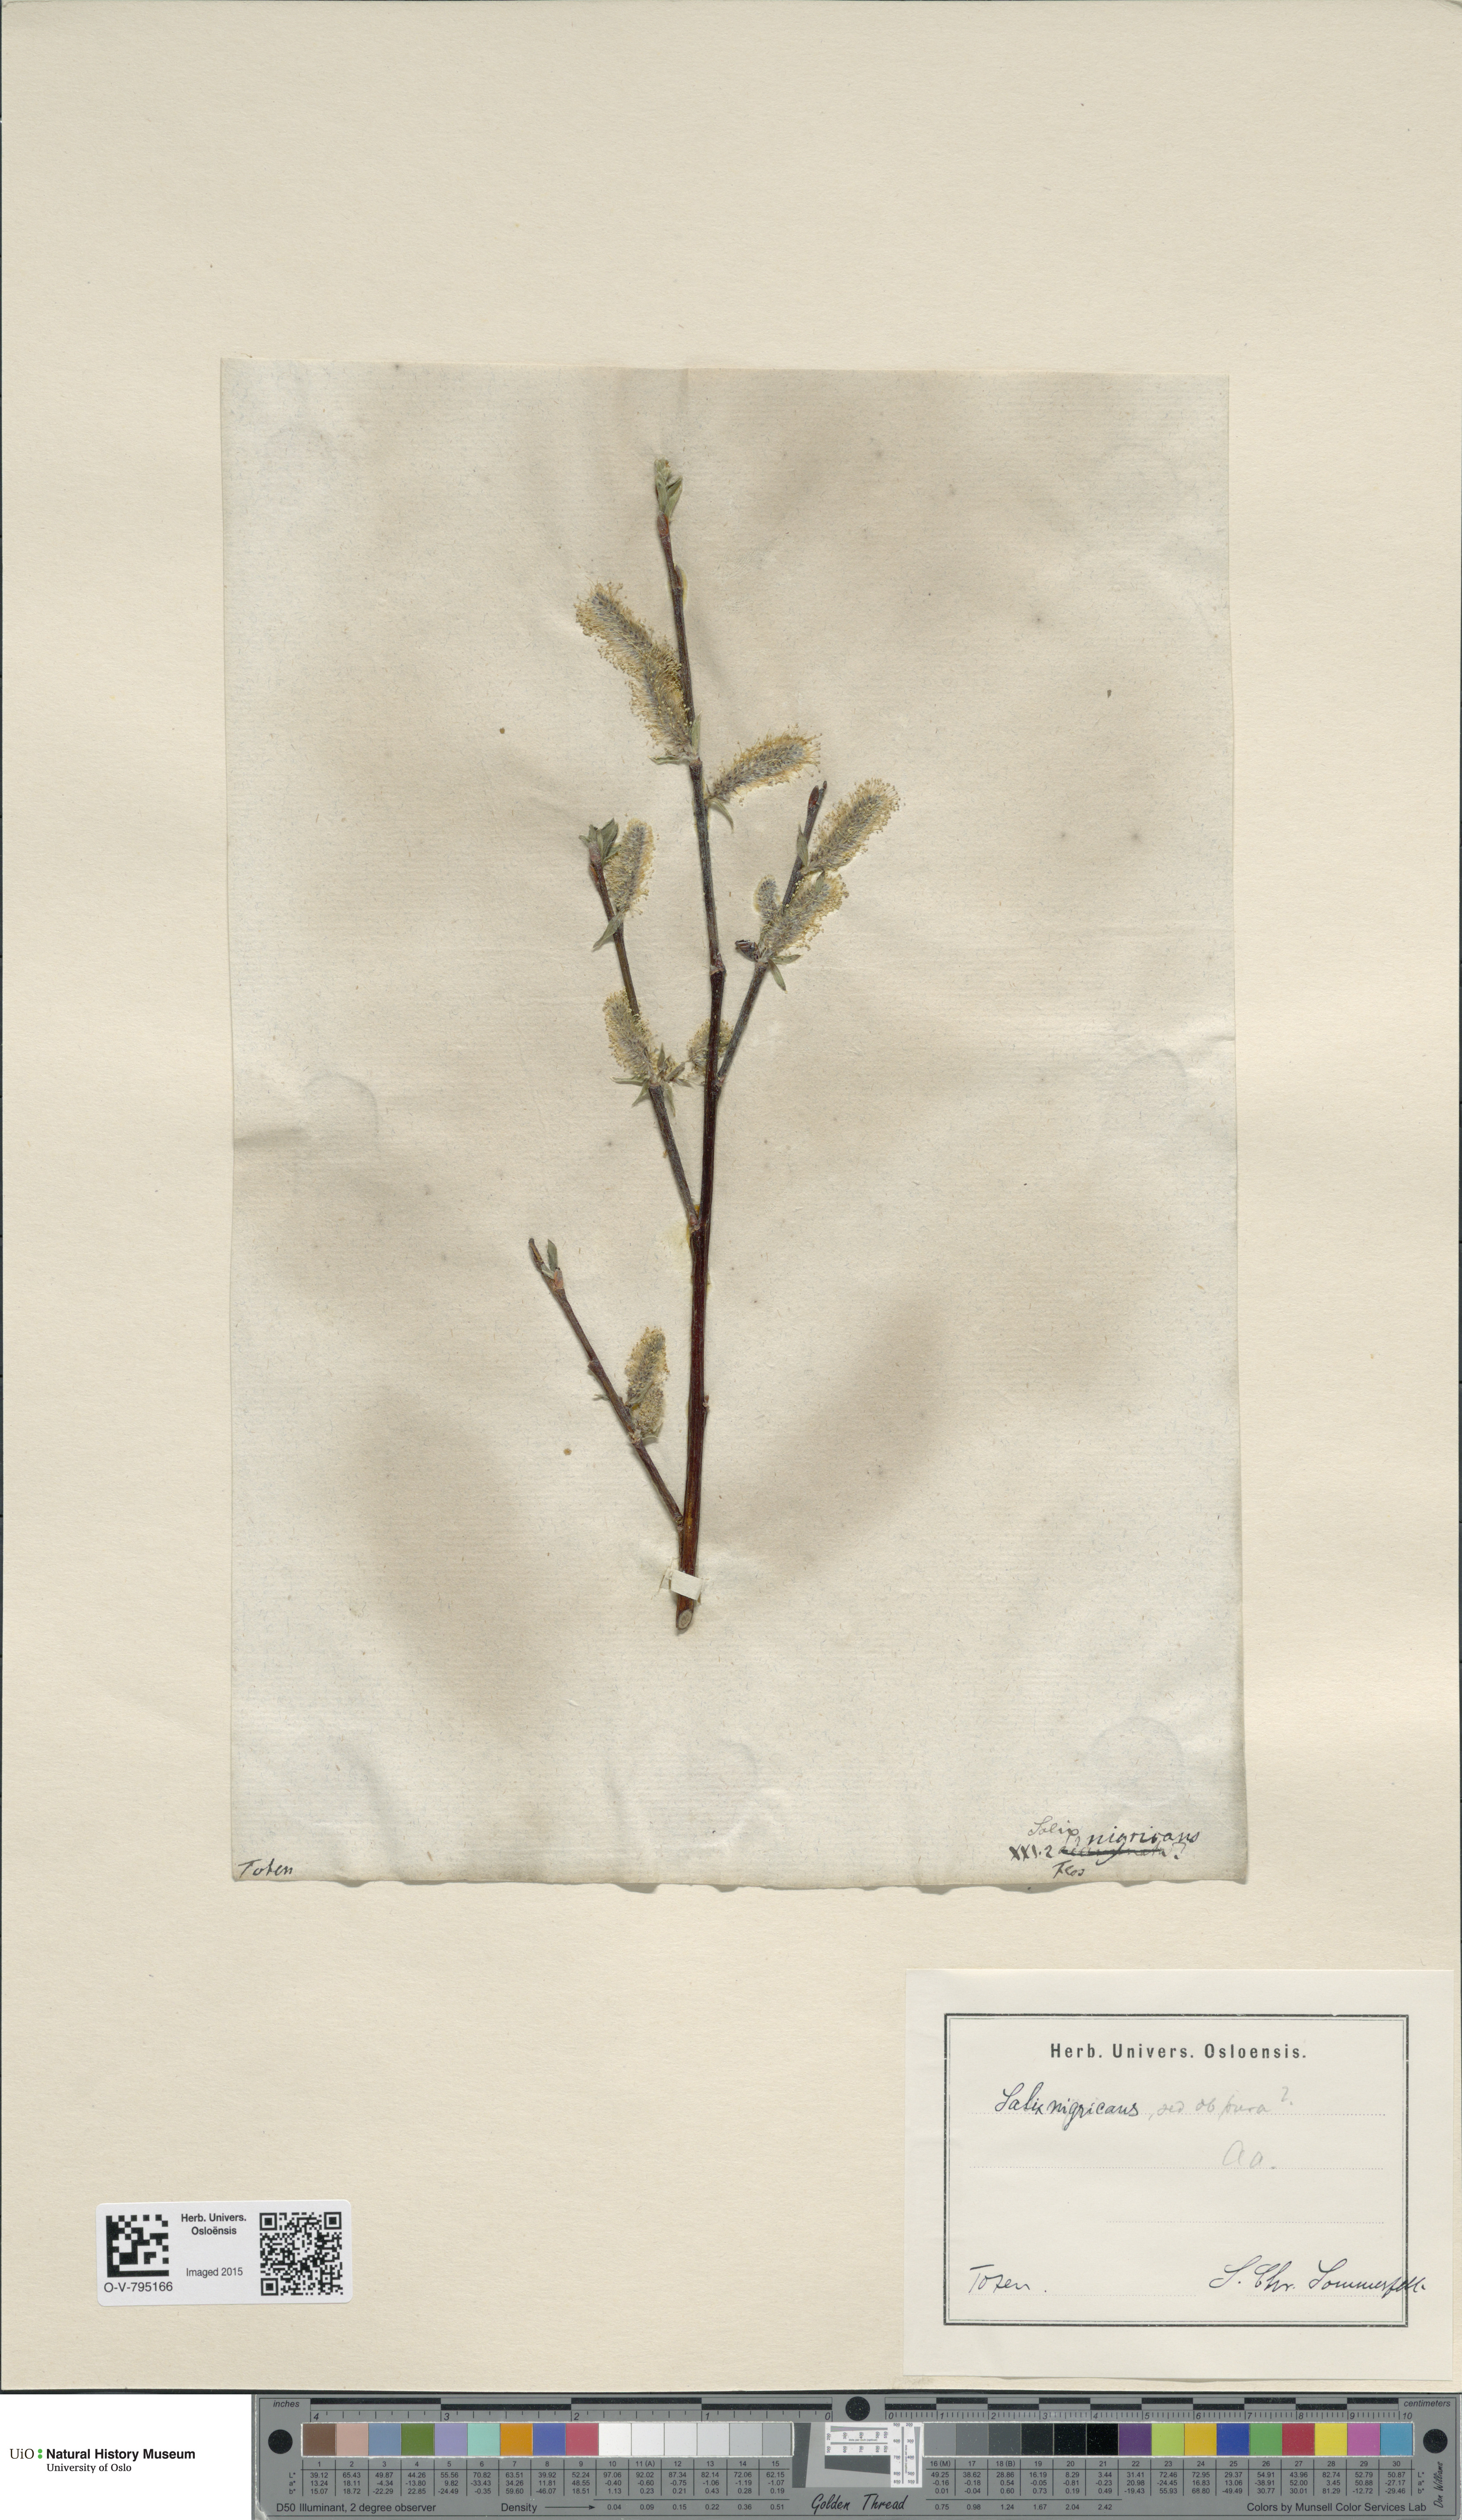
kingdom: Plantae
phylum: Tracheophyta
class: Magnoliopsida
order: Malpighiales
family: Salicaceae
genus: Salix
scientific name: Salix myrsinifolia
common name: Dark-leaved willow
